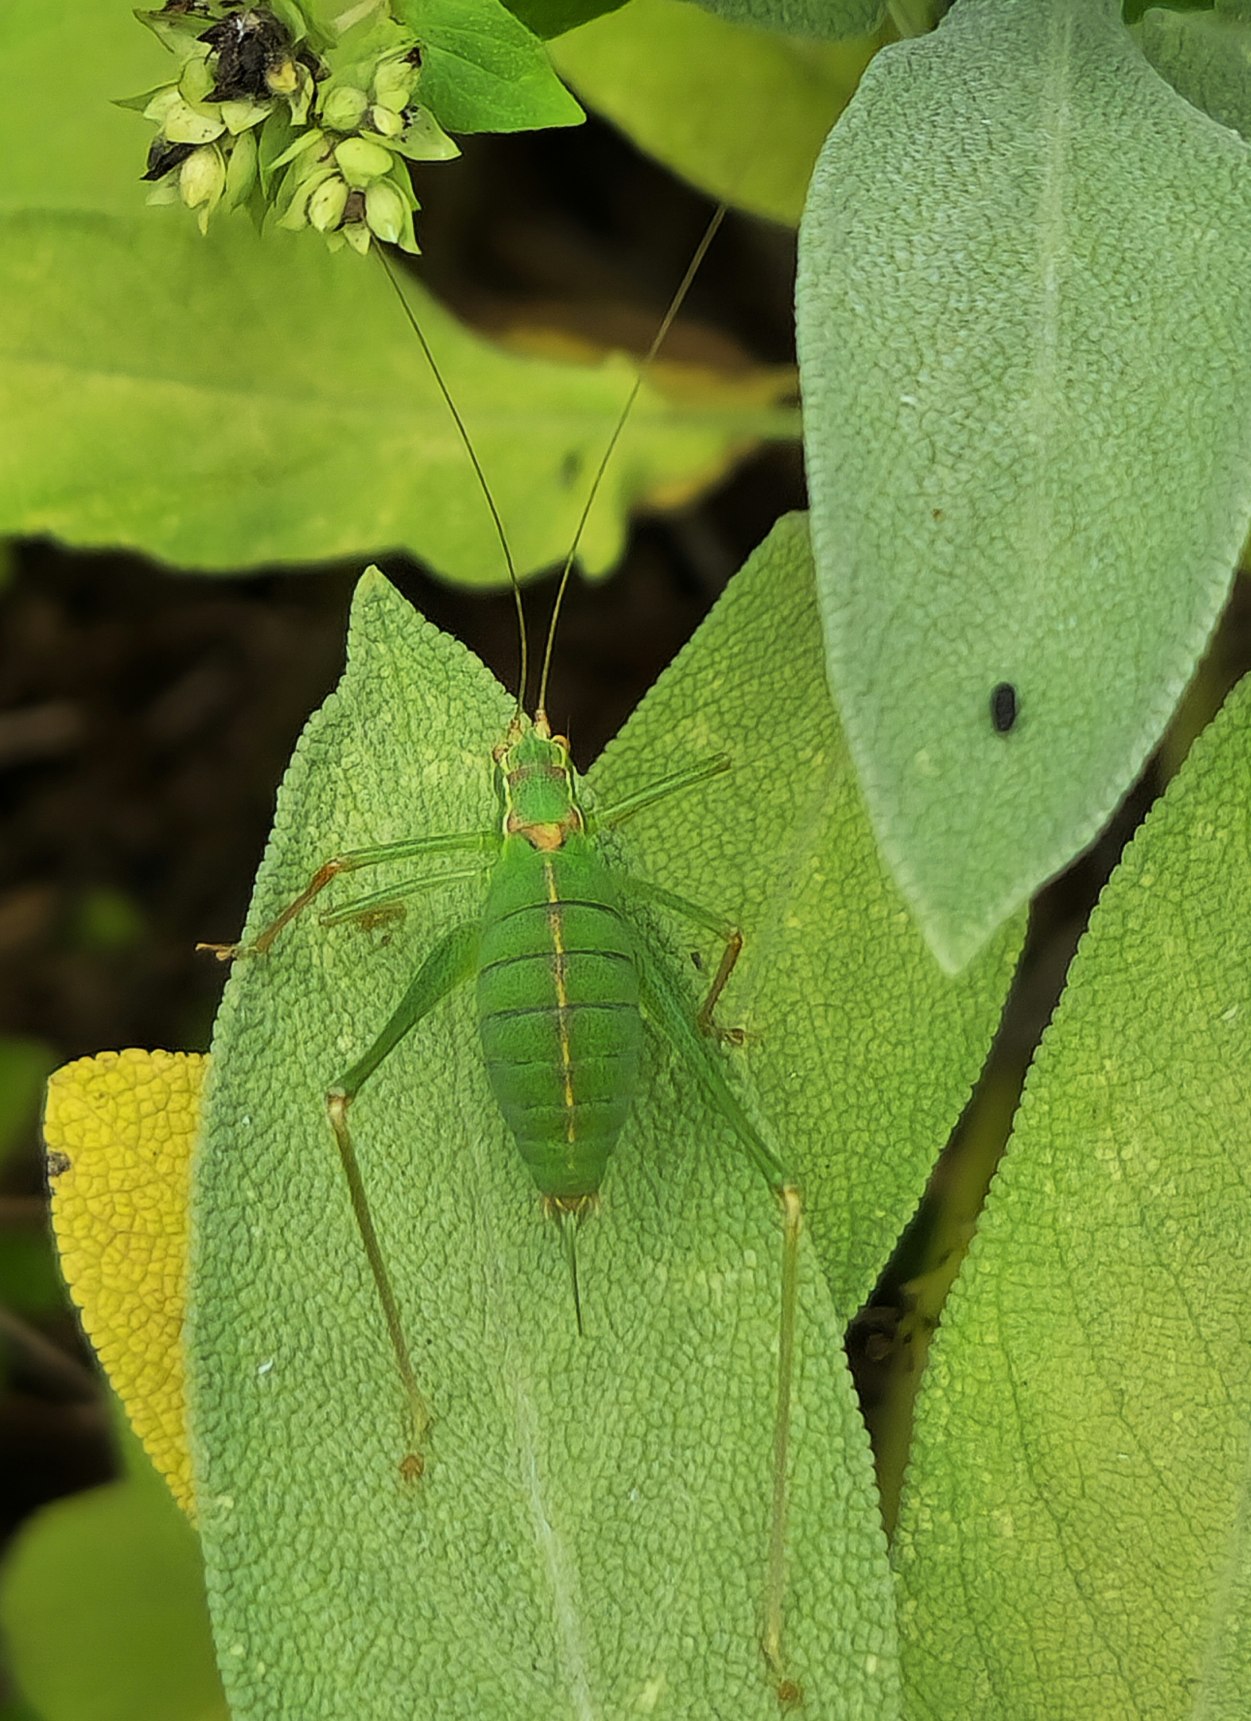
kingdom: Animalia
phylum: Arthropoda
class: Insecta
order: Orthoptera
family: Tettigoniidae
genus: Leptophyes
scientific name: Leptophyes punctatissima
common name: Krumknivgræshoppe
